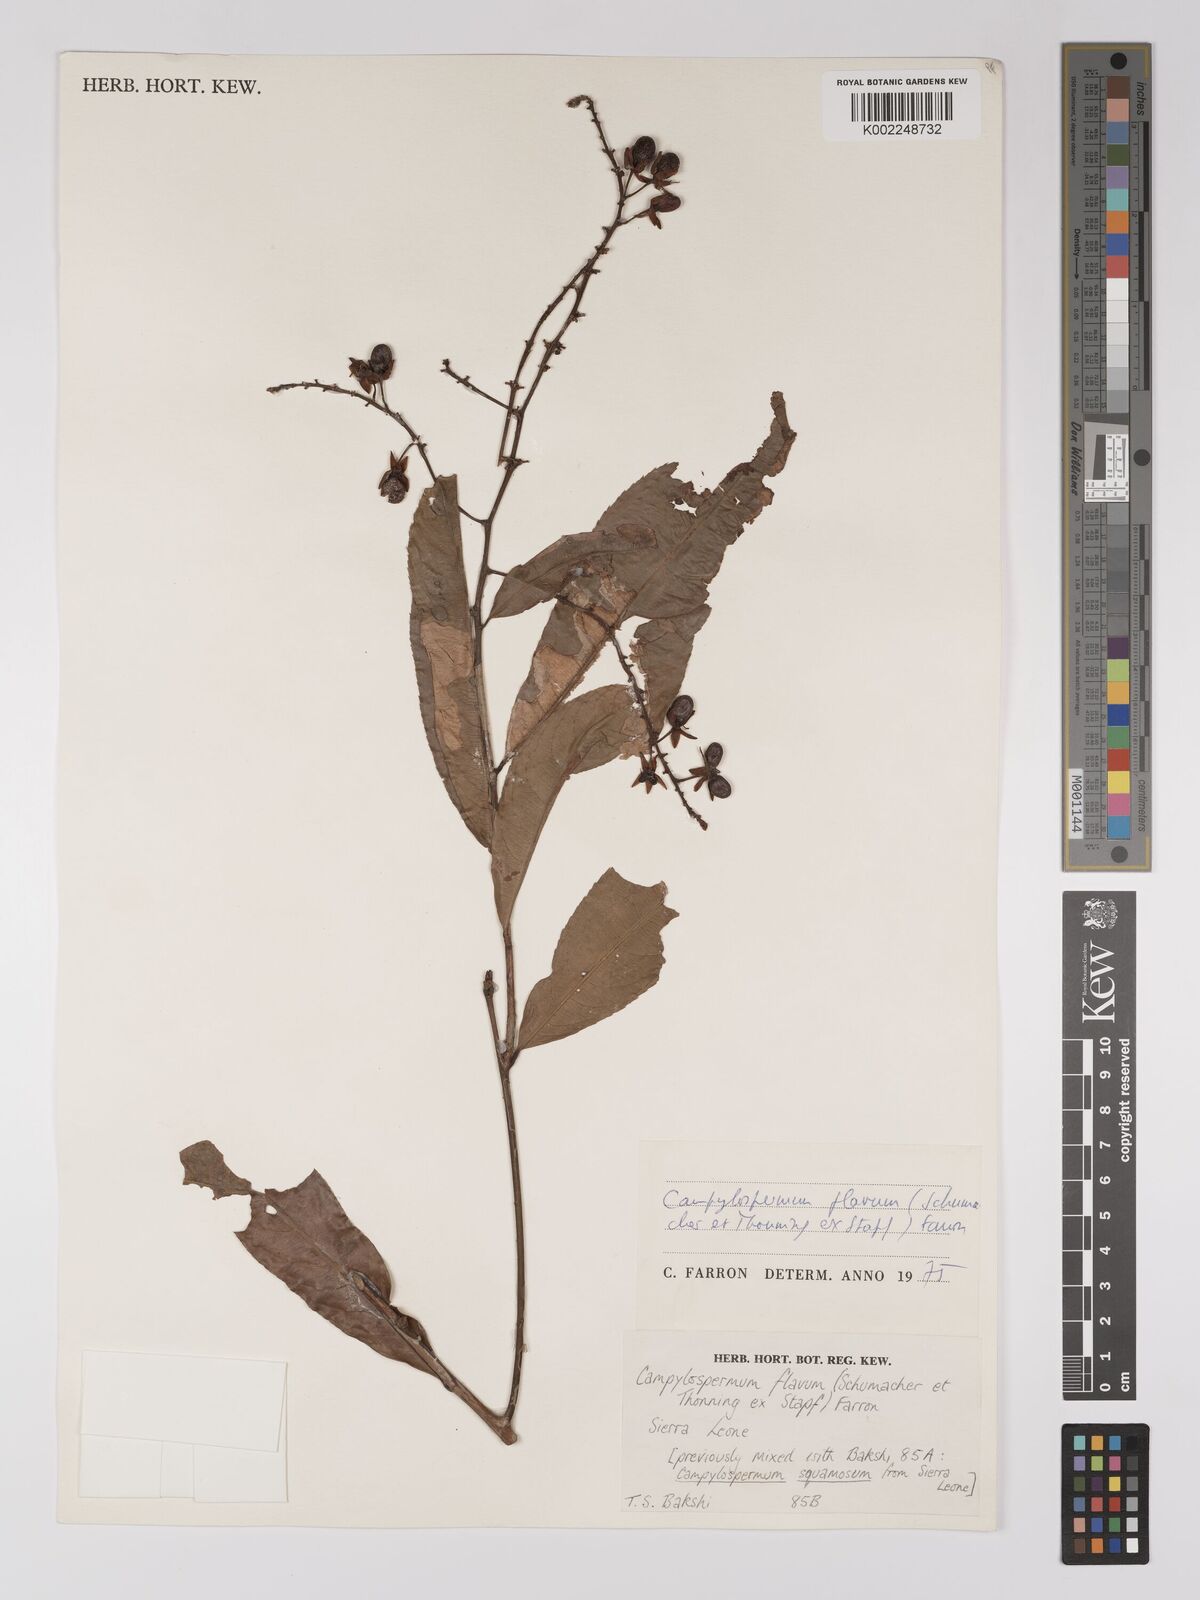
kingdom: Plantae
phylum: Tracheophyta
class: Magnoliopsida
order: Malpighiales
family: Ochnaceae
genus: Campylospermum
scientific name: Campylospermum flavum
